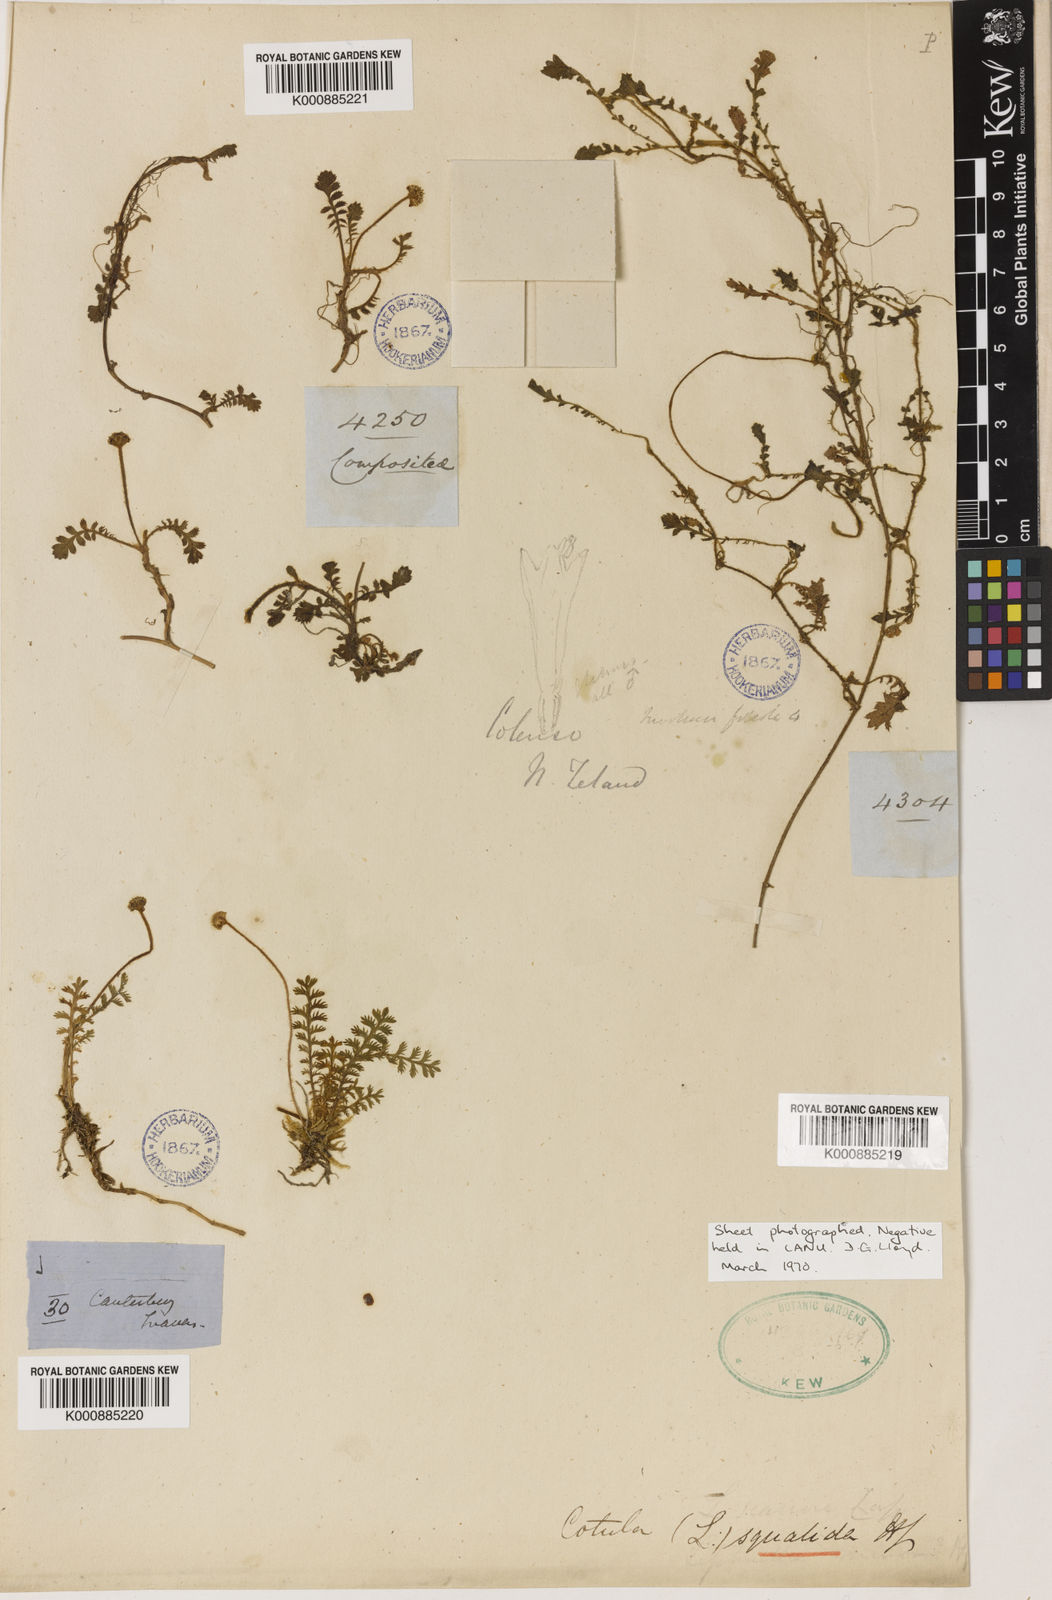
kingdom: Plantae
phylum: Tracheophyta
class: Magnoliopsida
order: Asterales
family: Asteraceae
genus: Leptinella
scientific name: Leptinella squalida
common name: New zealand brass-buttons
